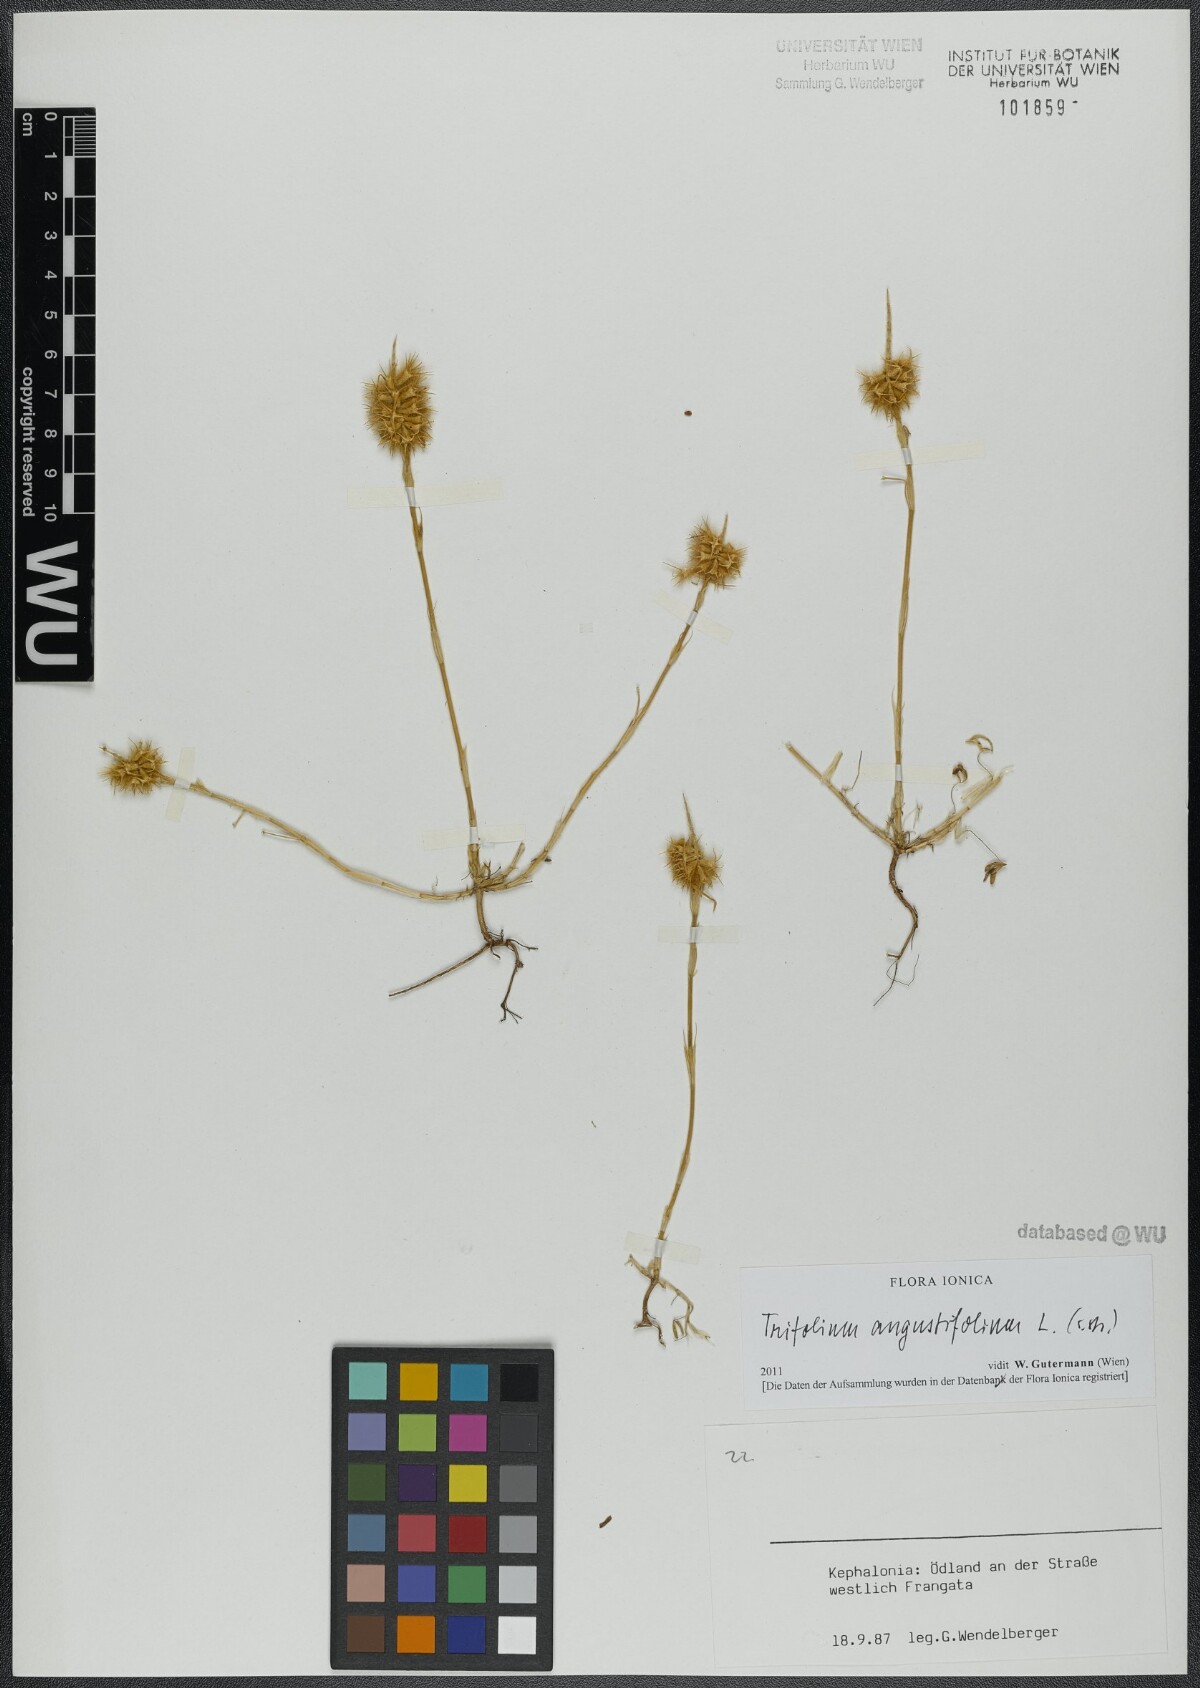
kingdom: Plantae
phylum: Tracheophyta
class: Magnoliopsida
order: Fabales
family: Fabaceae
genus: Trifolium
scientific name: Trifolium angustifolium
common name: Narrow clover
